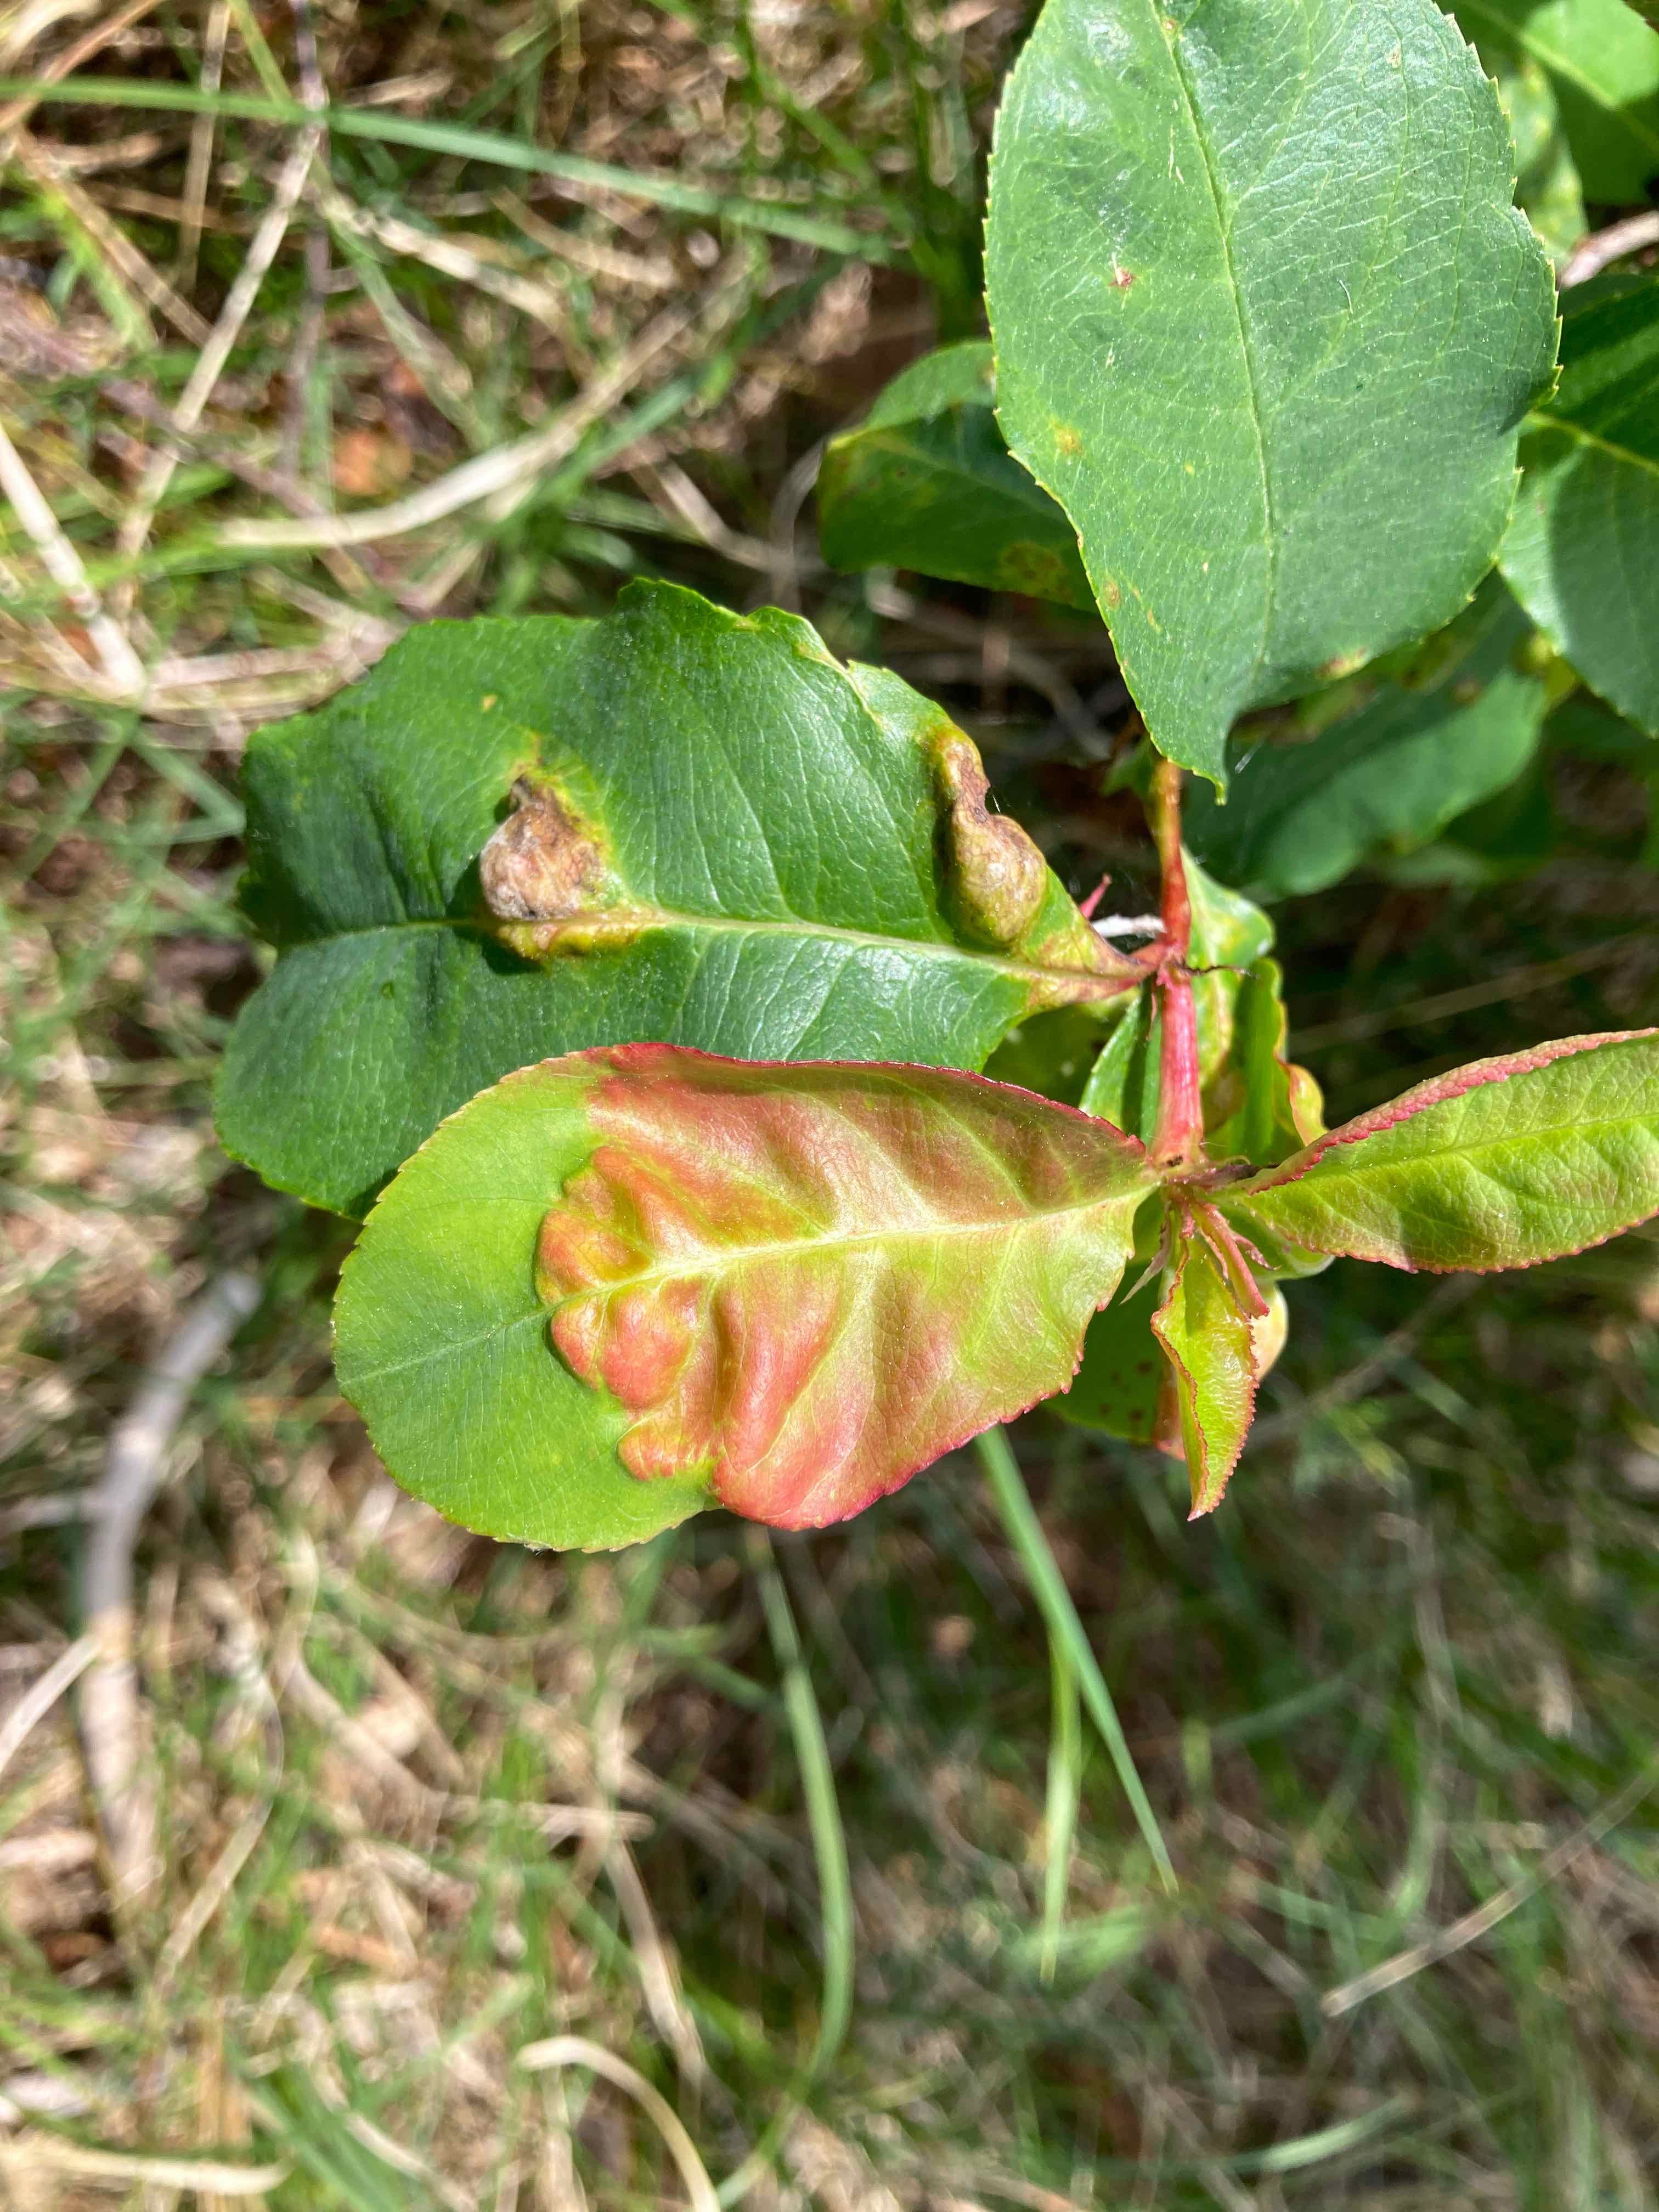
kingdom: Fungi
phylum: Ascomycota
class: Taphrinomycetes
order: Taphrinales
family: Taphrinaceae
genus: Taphrina
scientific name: Taphrina farlowii
